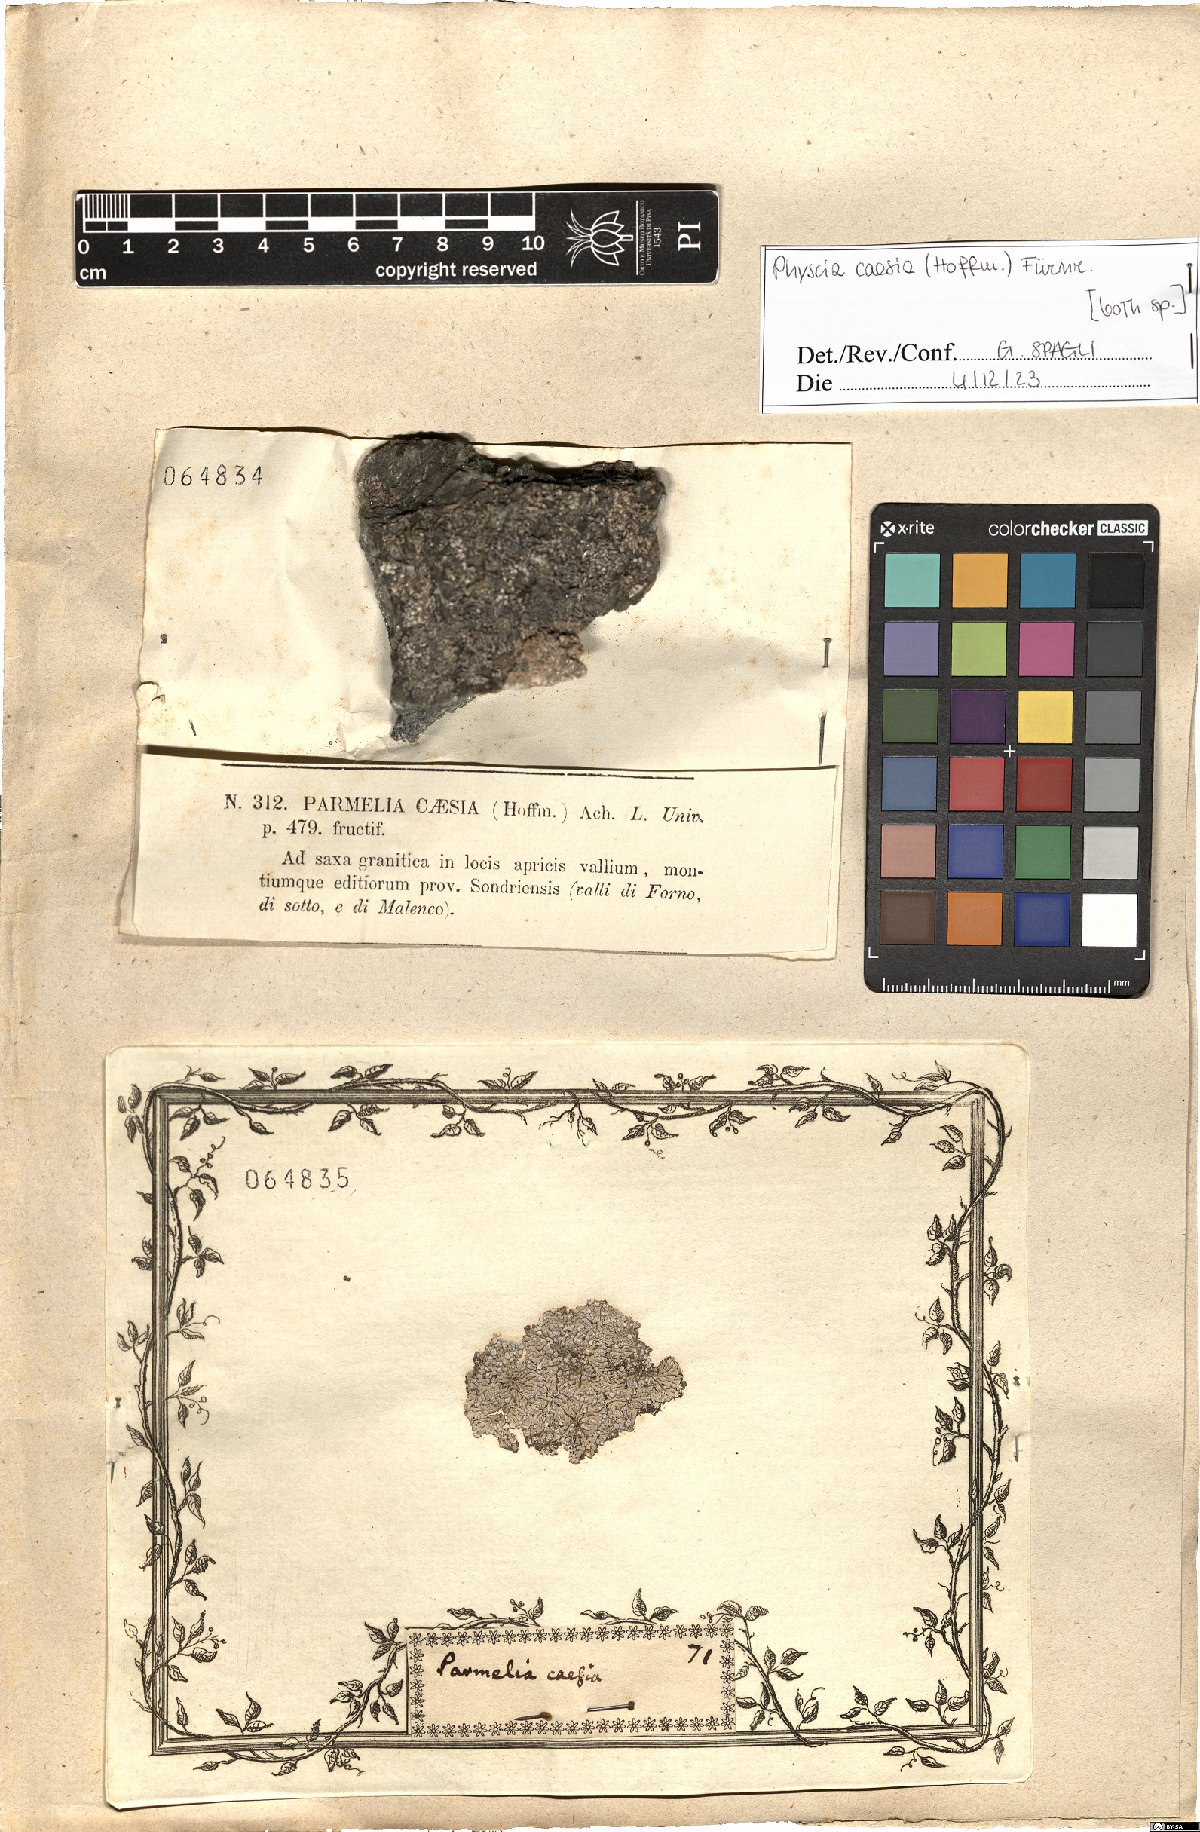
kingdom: Fungi
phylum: Ascomycota
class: Lecanoromycetes
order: Caliciales
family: Physciaceae
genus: Physcia
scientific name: Physcia caesia
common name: Blue-gray rosette lichen
